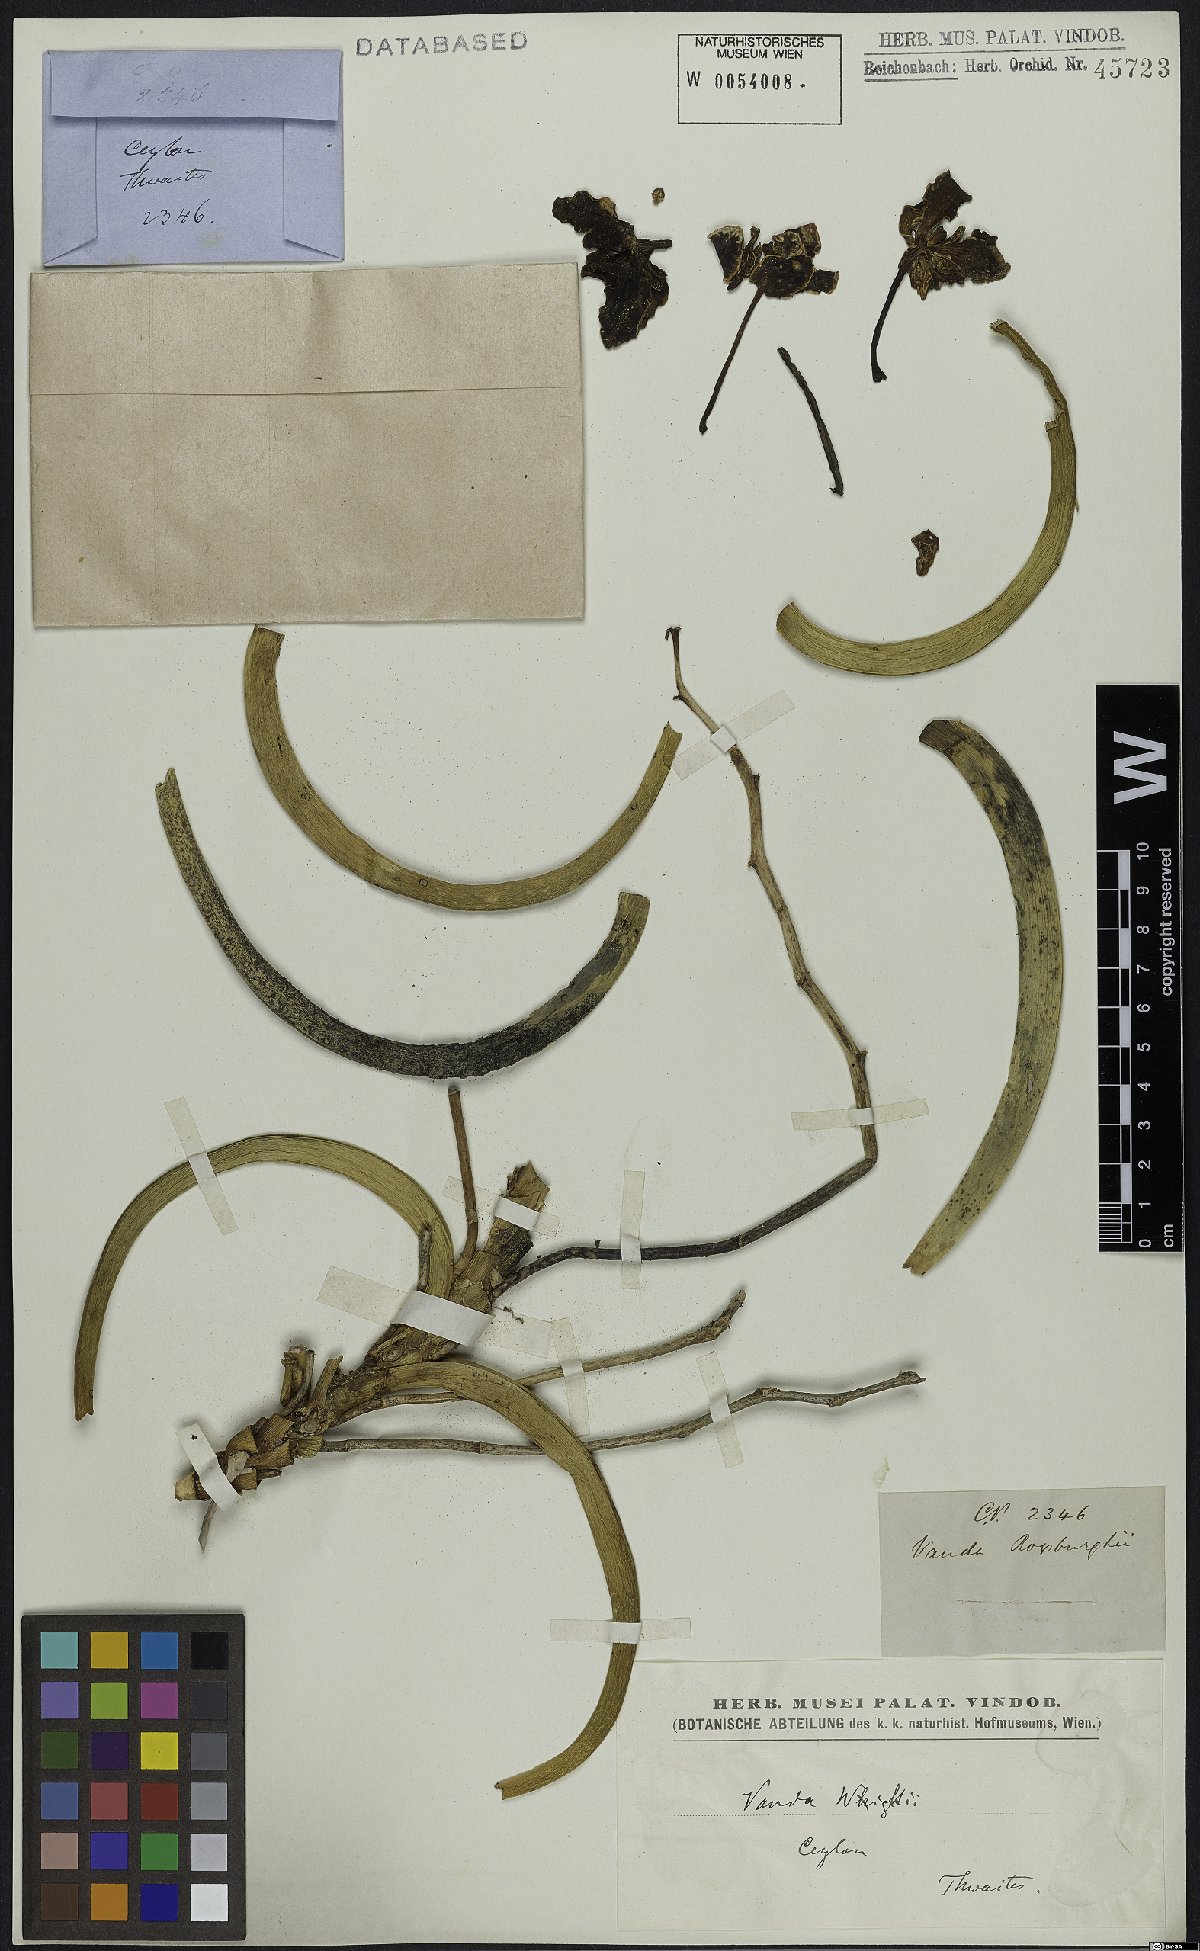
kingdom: Plantae
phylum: Tracheophyta
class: Liliopsida
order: Asparagales
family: Orchidaceae
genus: Vanda
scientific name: Vanda wightii
